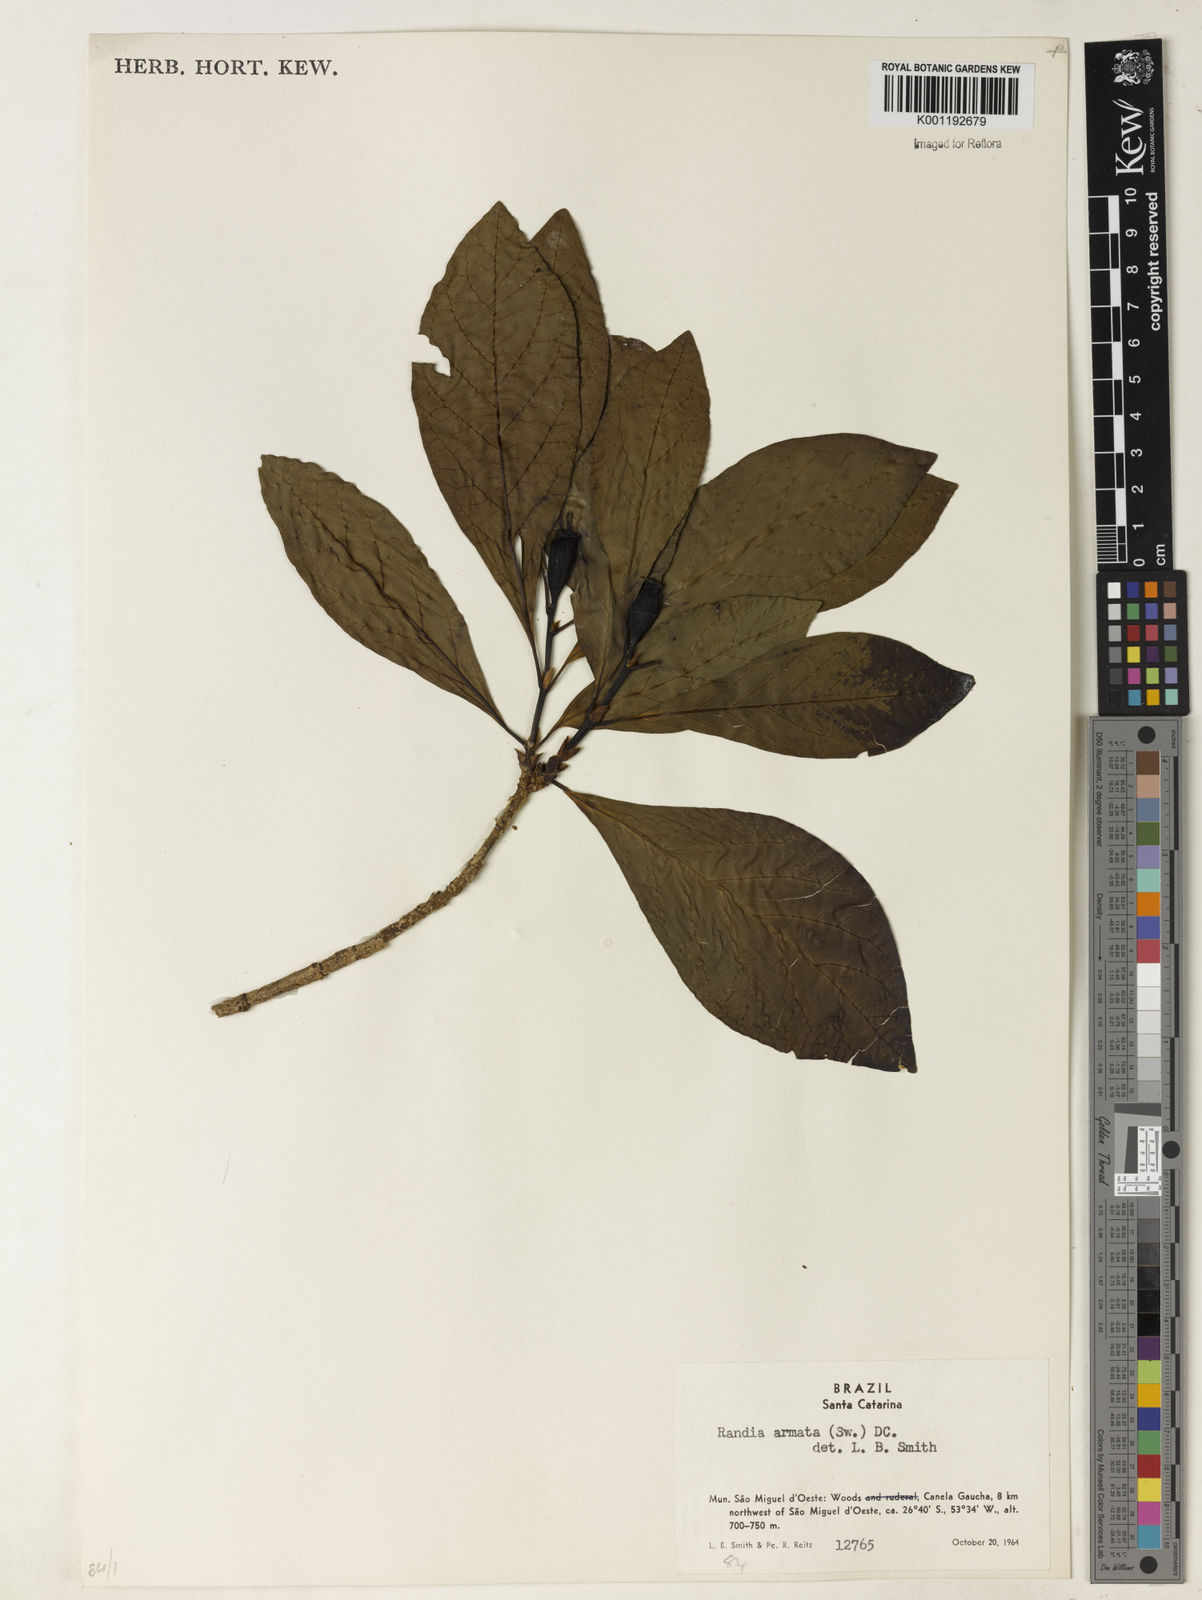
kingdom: Plantae
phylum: Tracheophyta
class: Magnoliopsida
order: Gentianales
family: Rubiaceae
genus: Randia
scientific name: Randia armata
